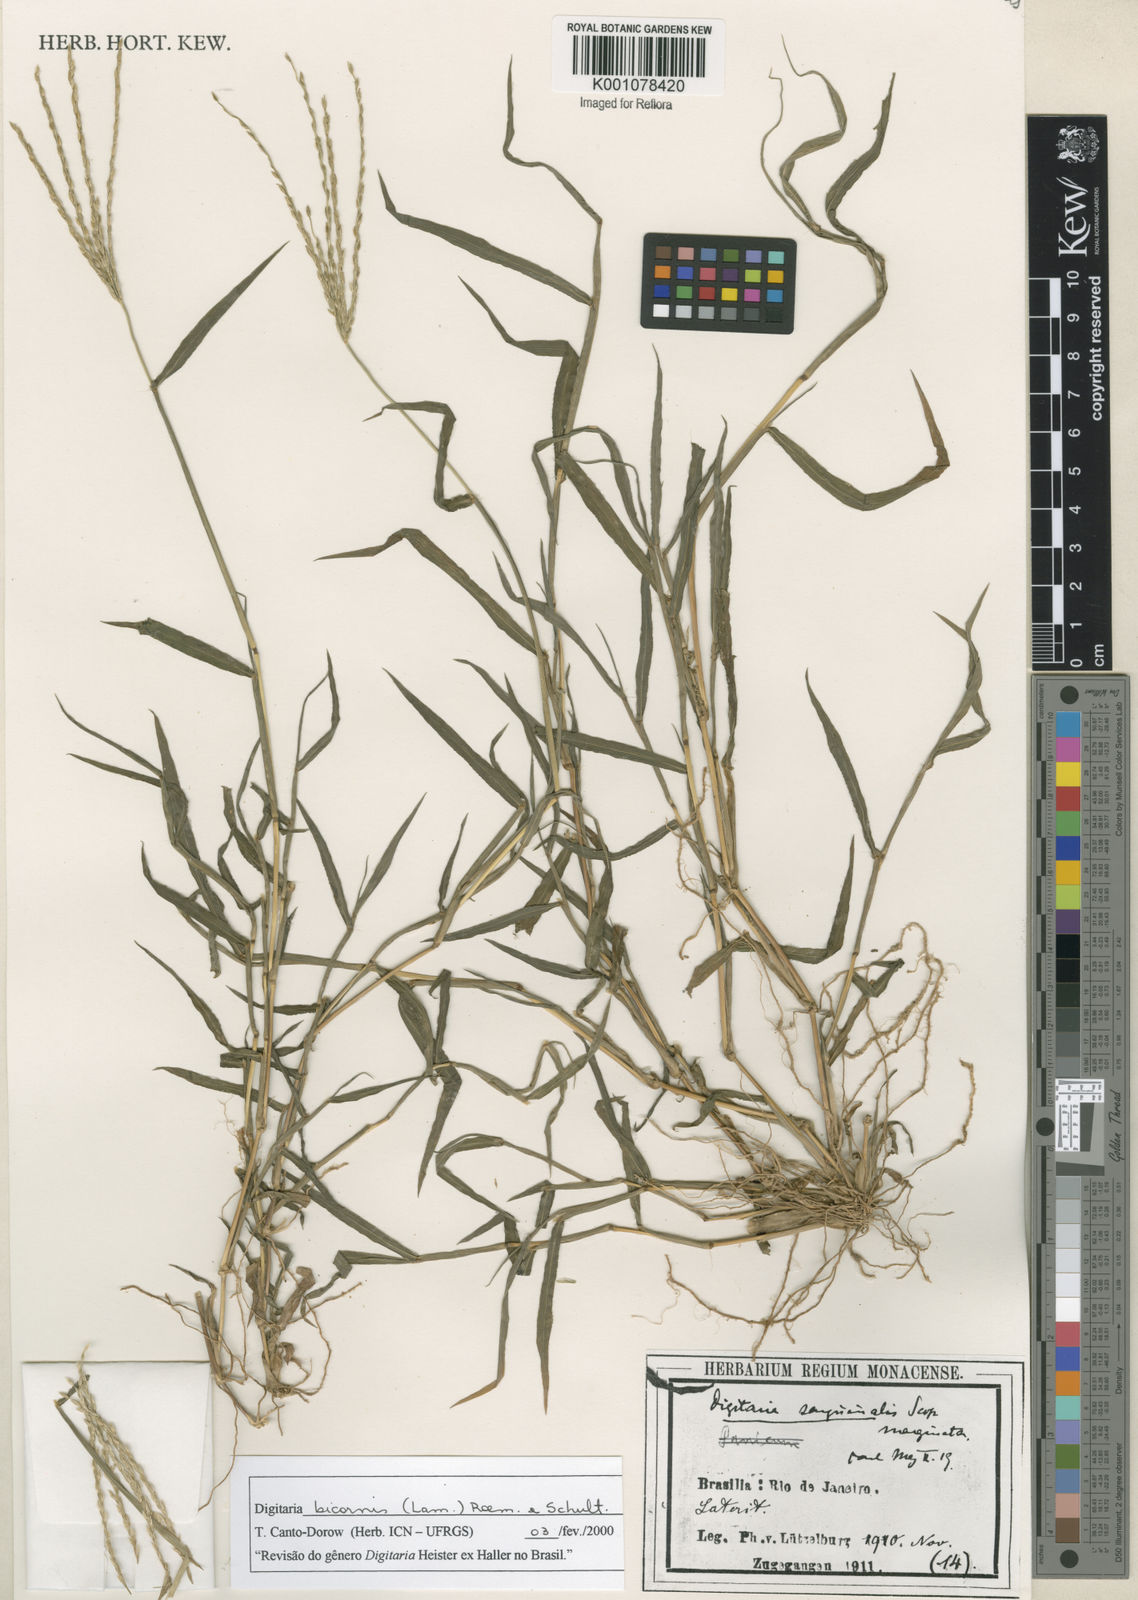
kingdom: Plantae
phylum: Tracheophyta
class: Liliopsida
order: Poales
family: Poaceae
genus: Digitaria
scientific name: Digitaria bicornis
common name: Asian crabgrass
